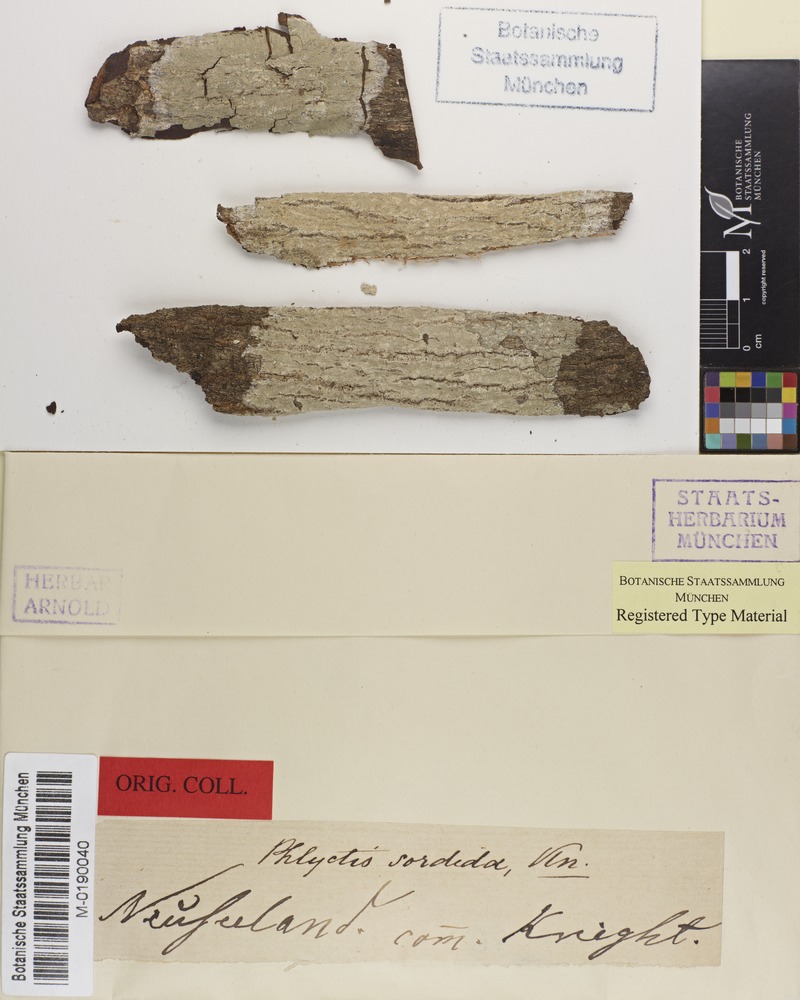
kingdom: Fungi
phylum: Ascomycota
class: Lecanoromycetes
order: Ostropales
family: Phlyctidaceae
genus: Phlyctis
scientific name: Phlyctis
